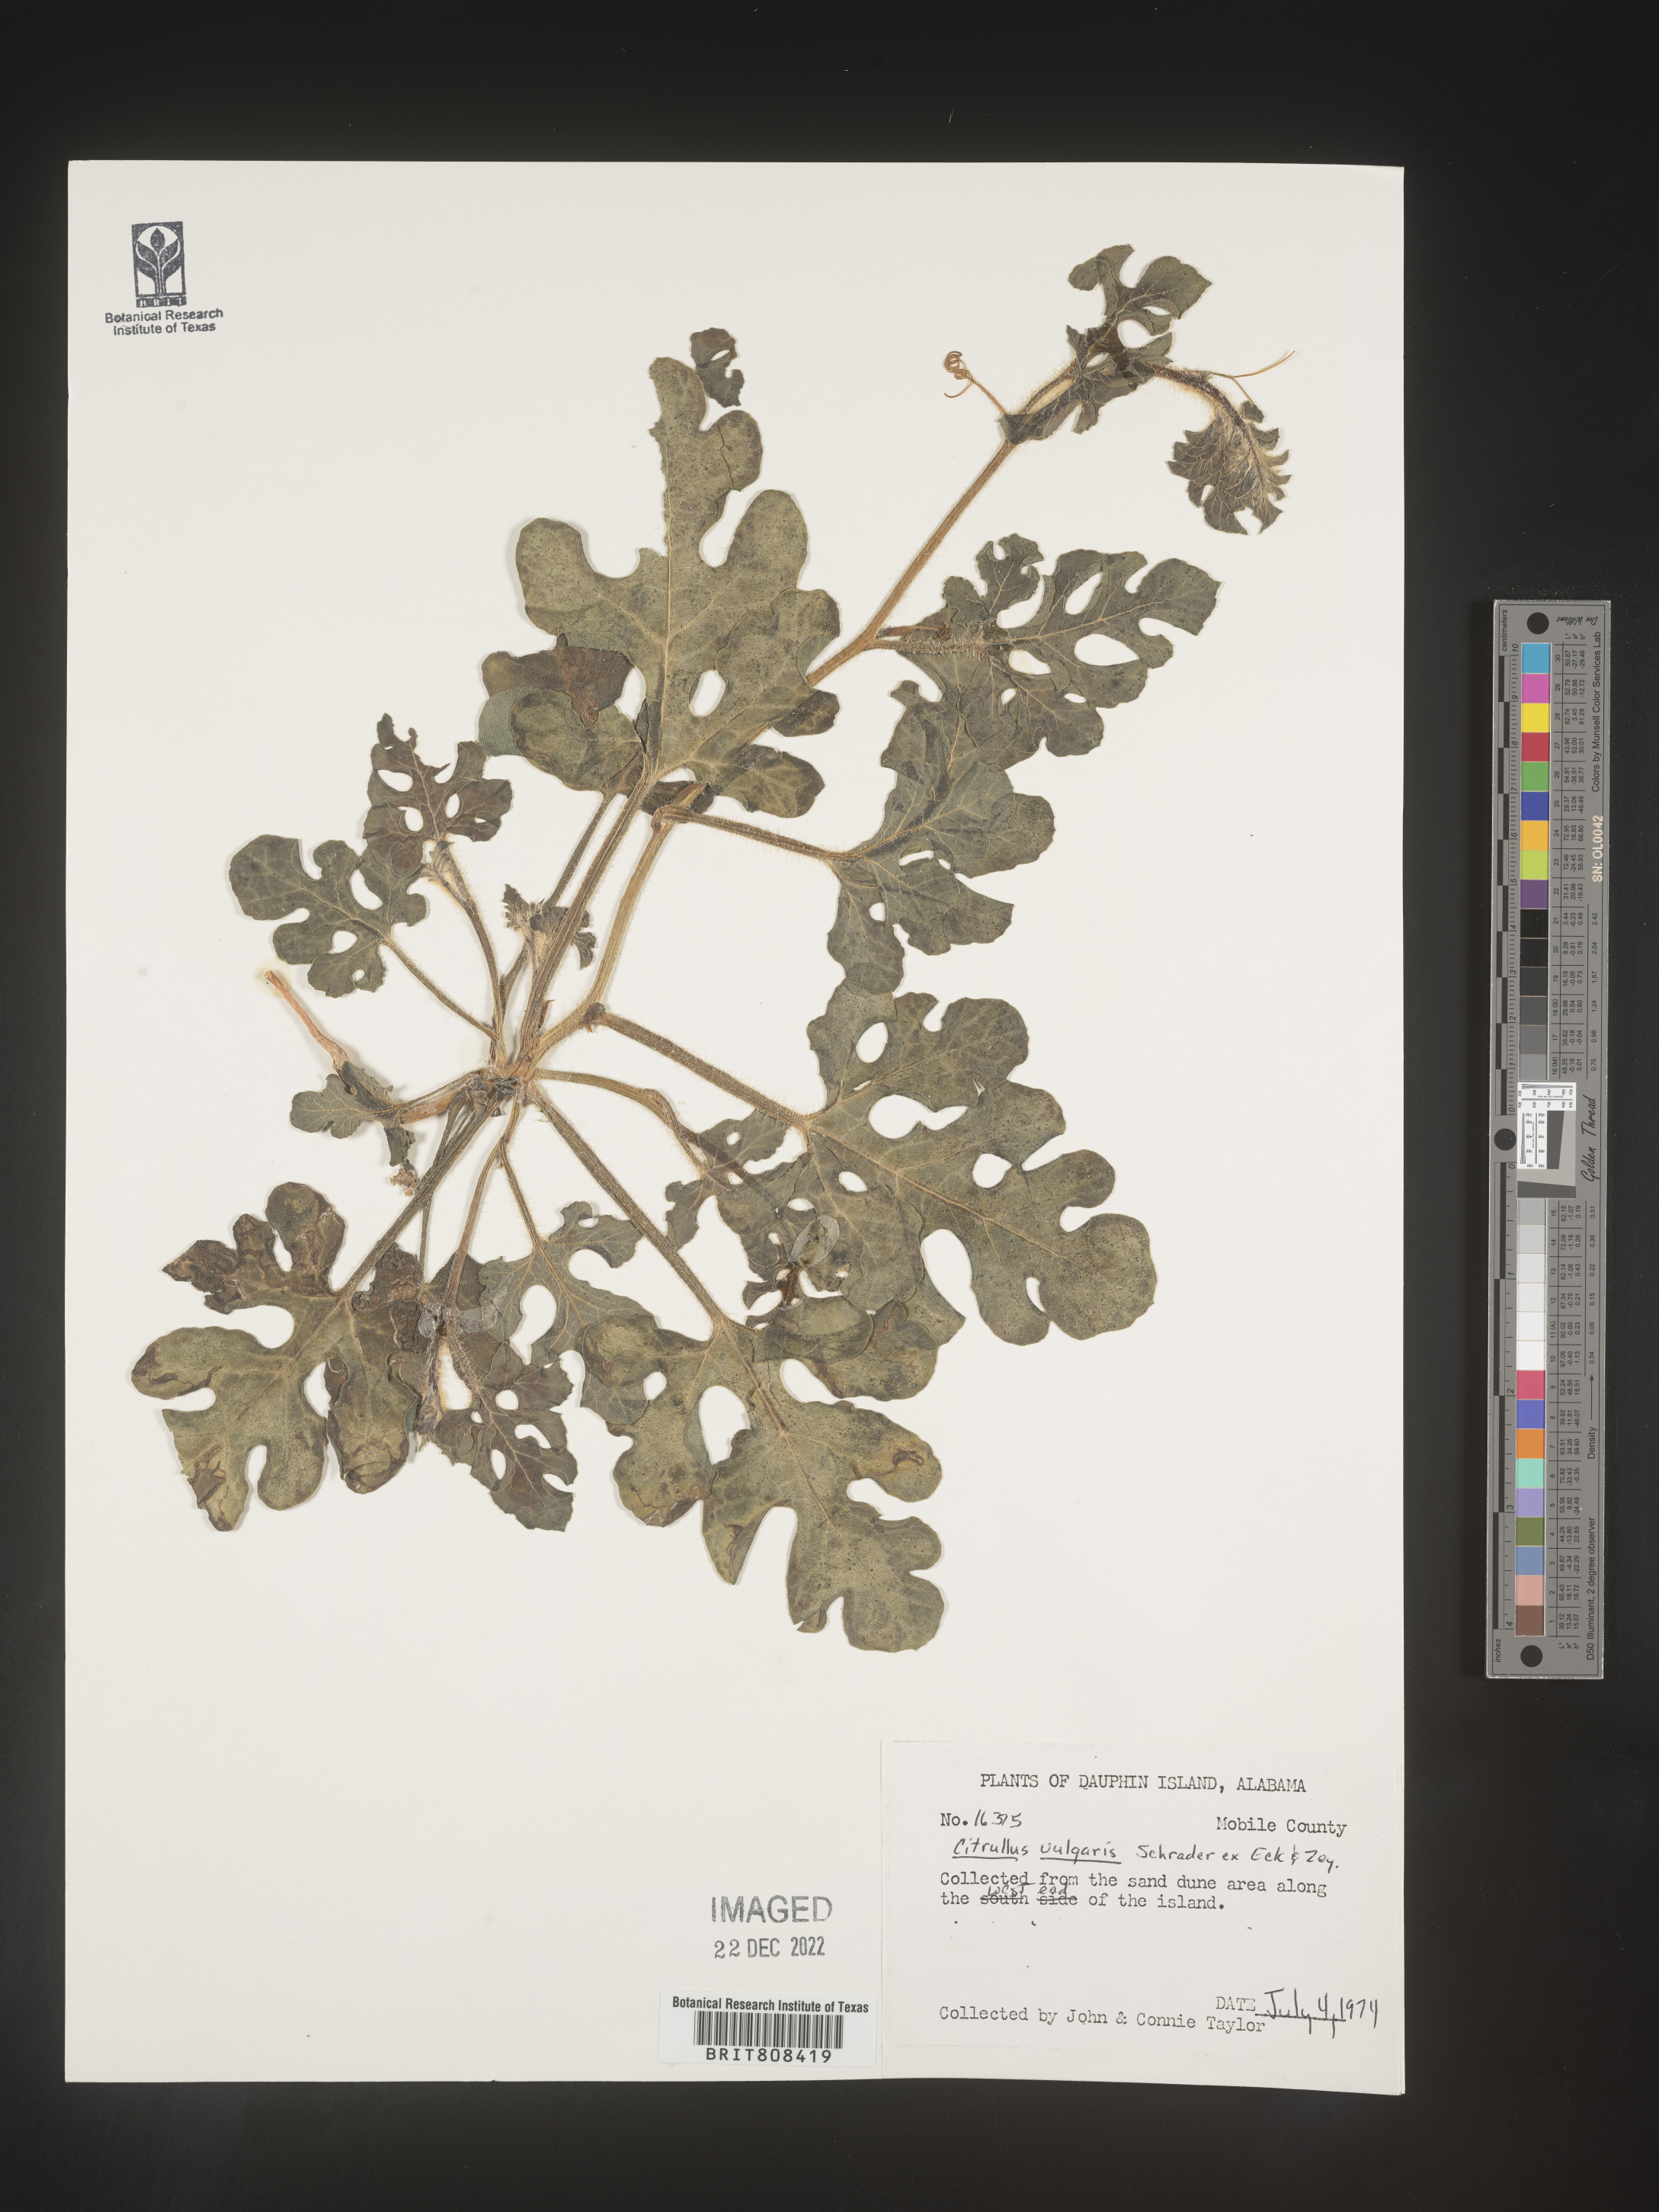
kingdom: Plantae
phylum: Tracheophyta
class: Magnoliopsida
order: Cucurbitales
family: Cucurbitaceae
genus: Citrullus
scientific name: Citrullus
